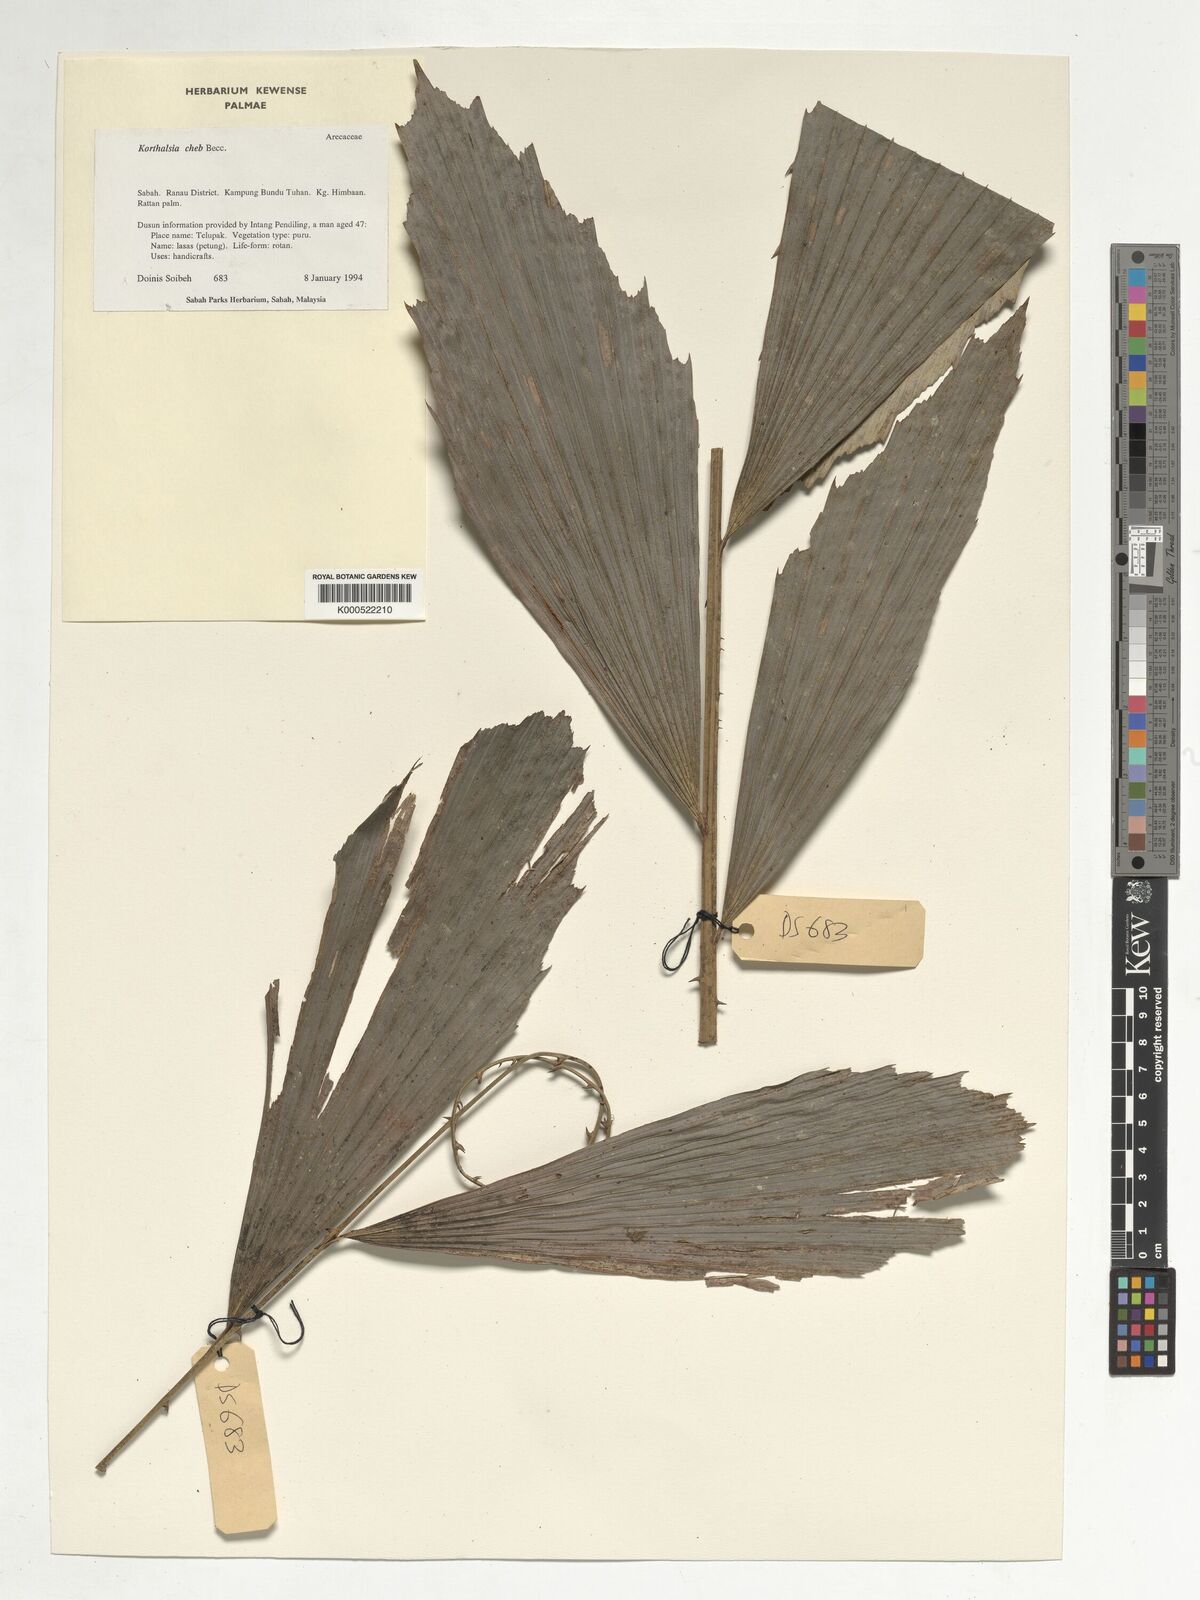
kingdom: Plantae
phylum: Tracheophyta
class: Liliopsida
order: Arecales
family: Arecaceae
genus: Korthalsia
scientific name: Korthalsia cheb
